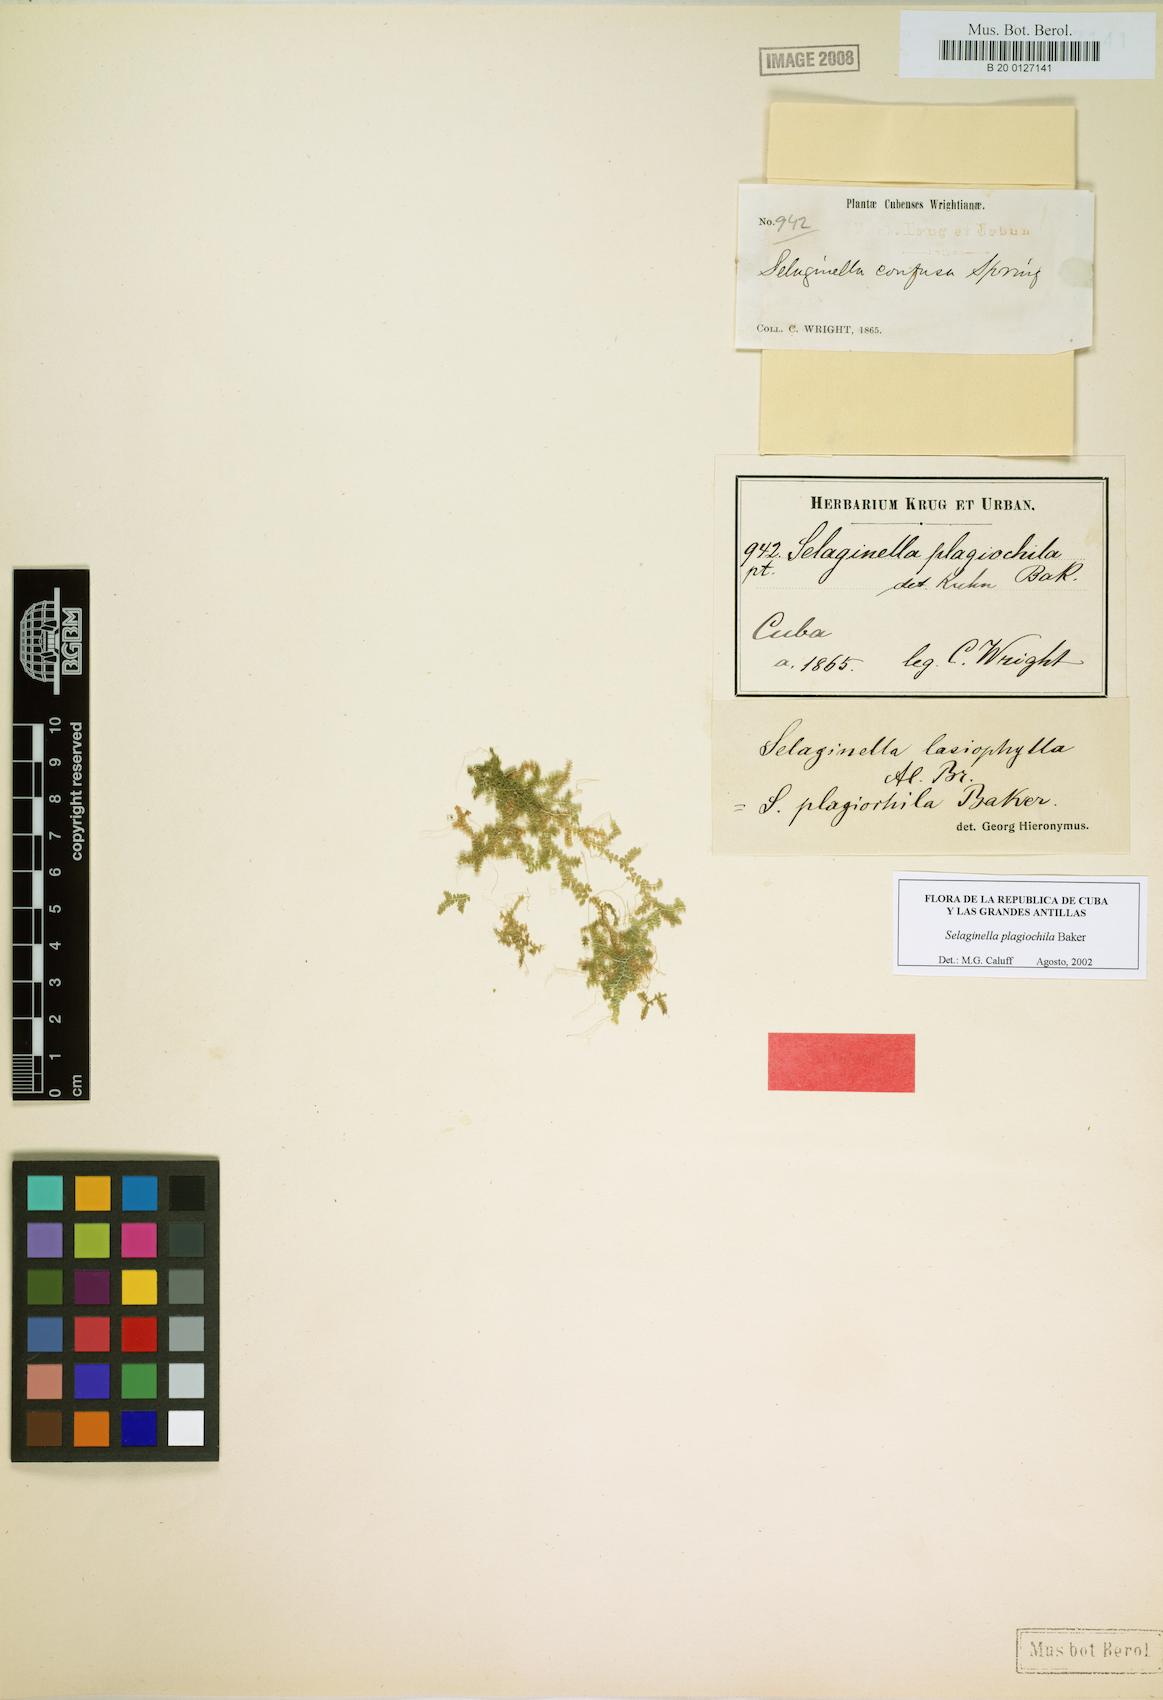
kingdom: Plantae
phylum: Tracheophyta
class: Lycopodiopsida
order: Selaginellales
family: Selaginellaceae
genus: Selaginella
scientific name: Selaginella plagiochila
